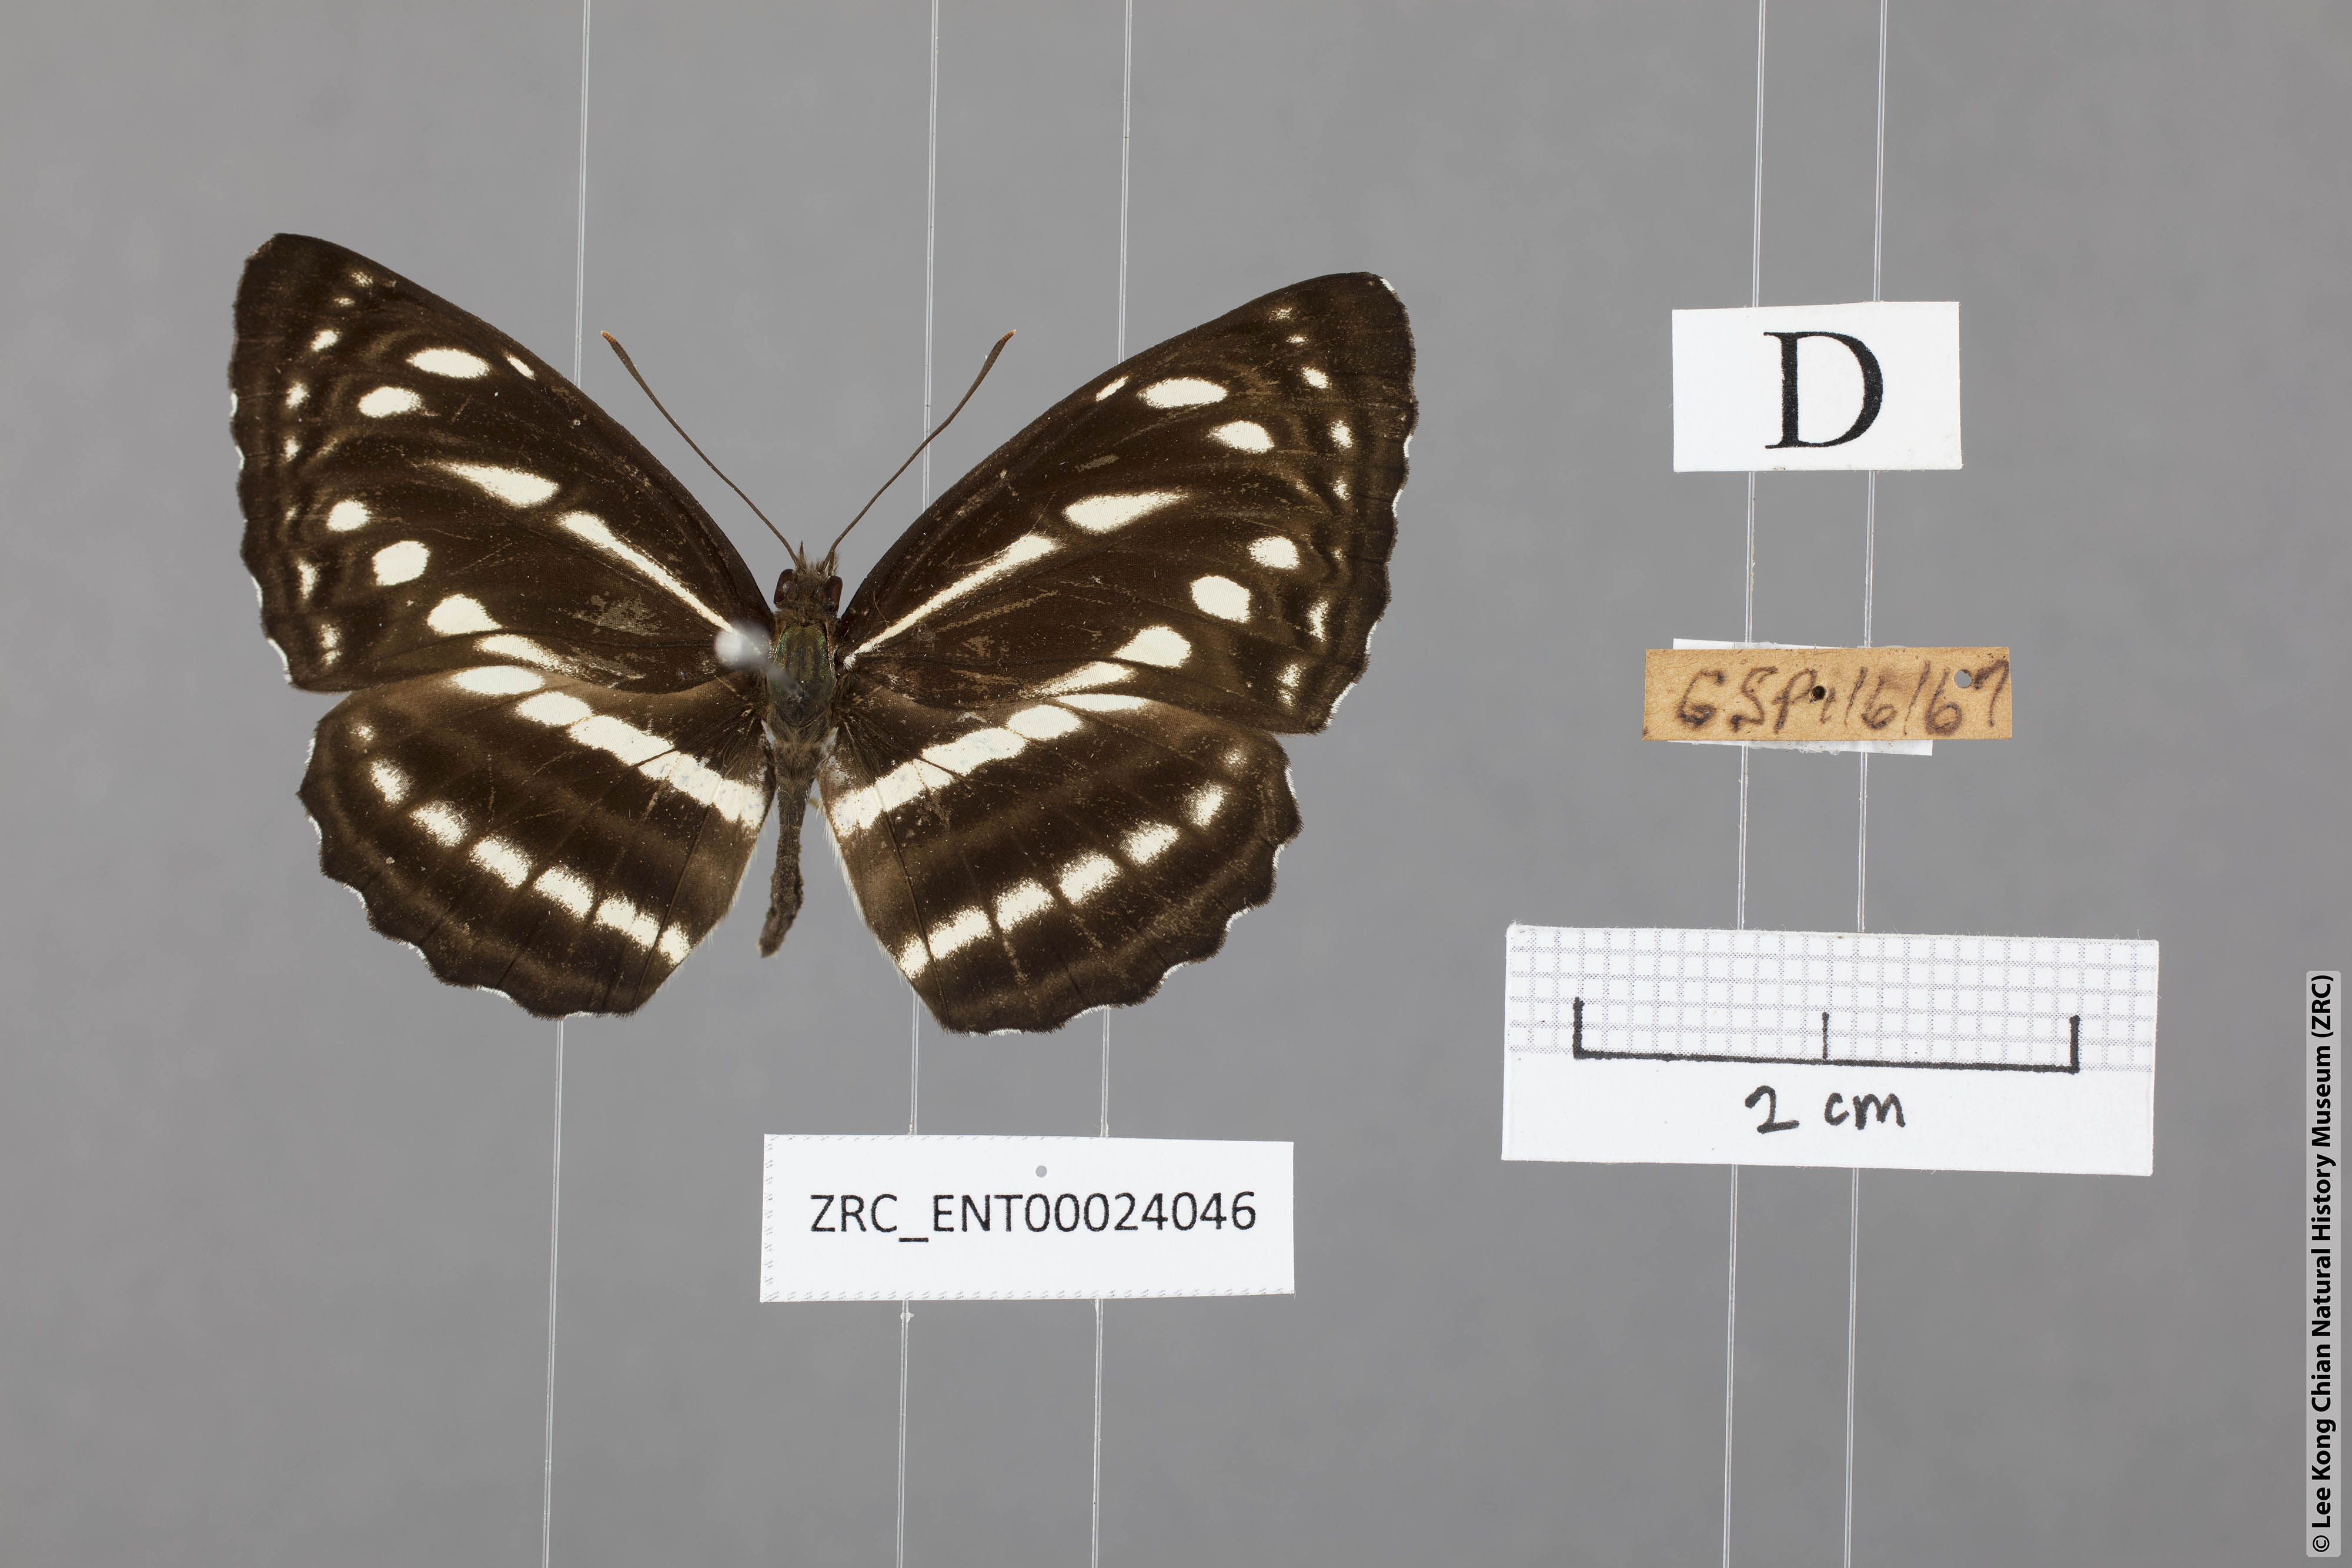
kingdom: Animalia
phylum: Arthropoda
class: Insecta
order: Lepidoptera
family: Nymphalidae
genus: Neptis
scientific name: Neptis nata
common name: Sullied brown sailer
